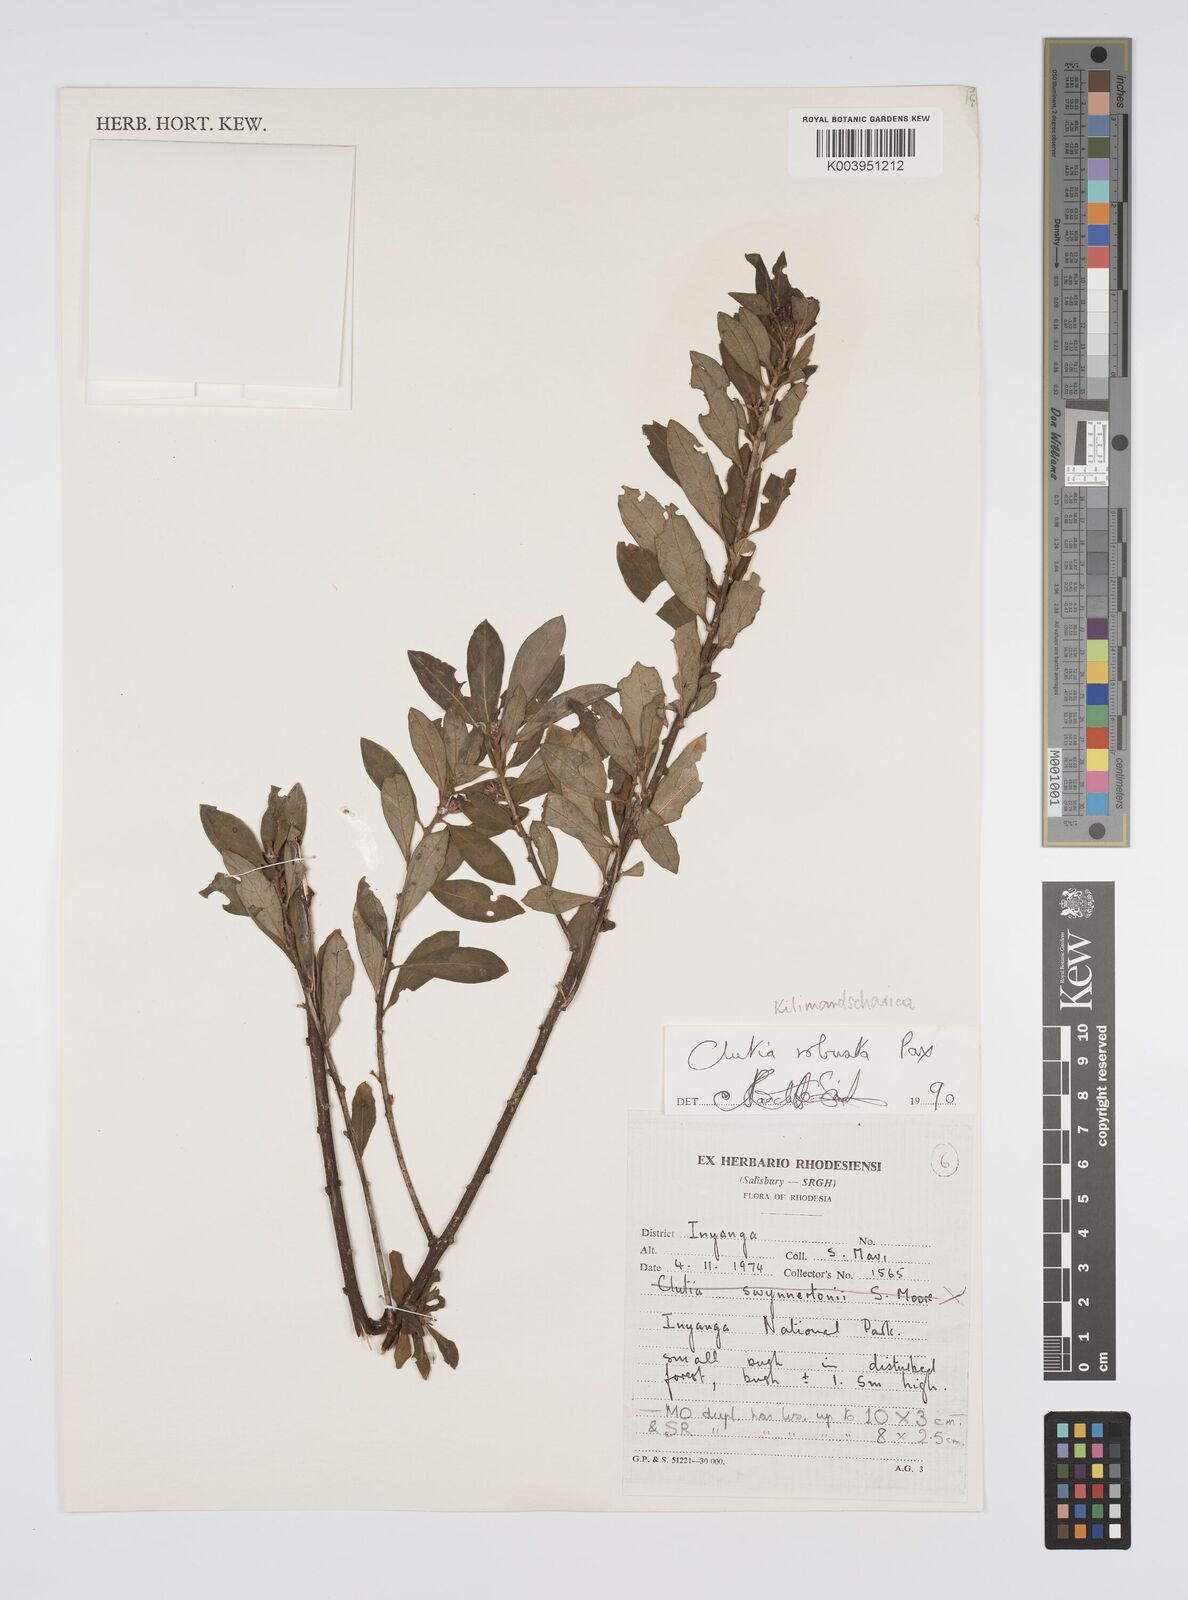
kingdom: Plantae
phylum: Tracheophyta
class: Magnoliopsida
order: Malpighiales
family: Peraceae
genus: Clutia
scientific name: Clutia kilimandscharica
